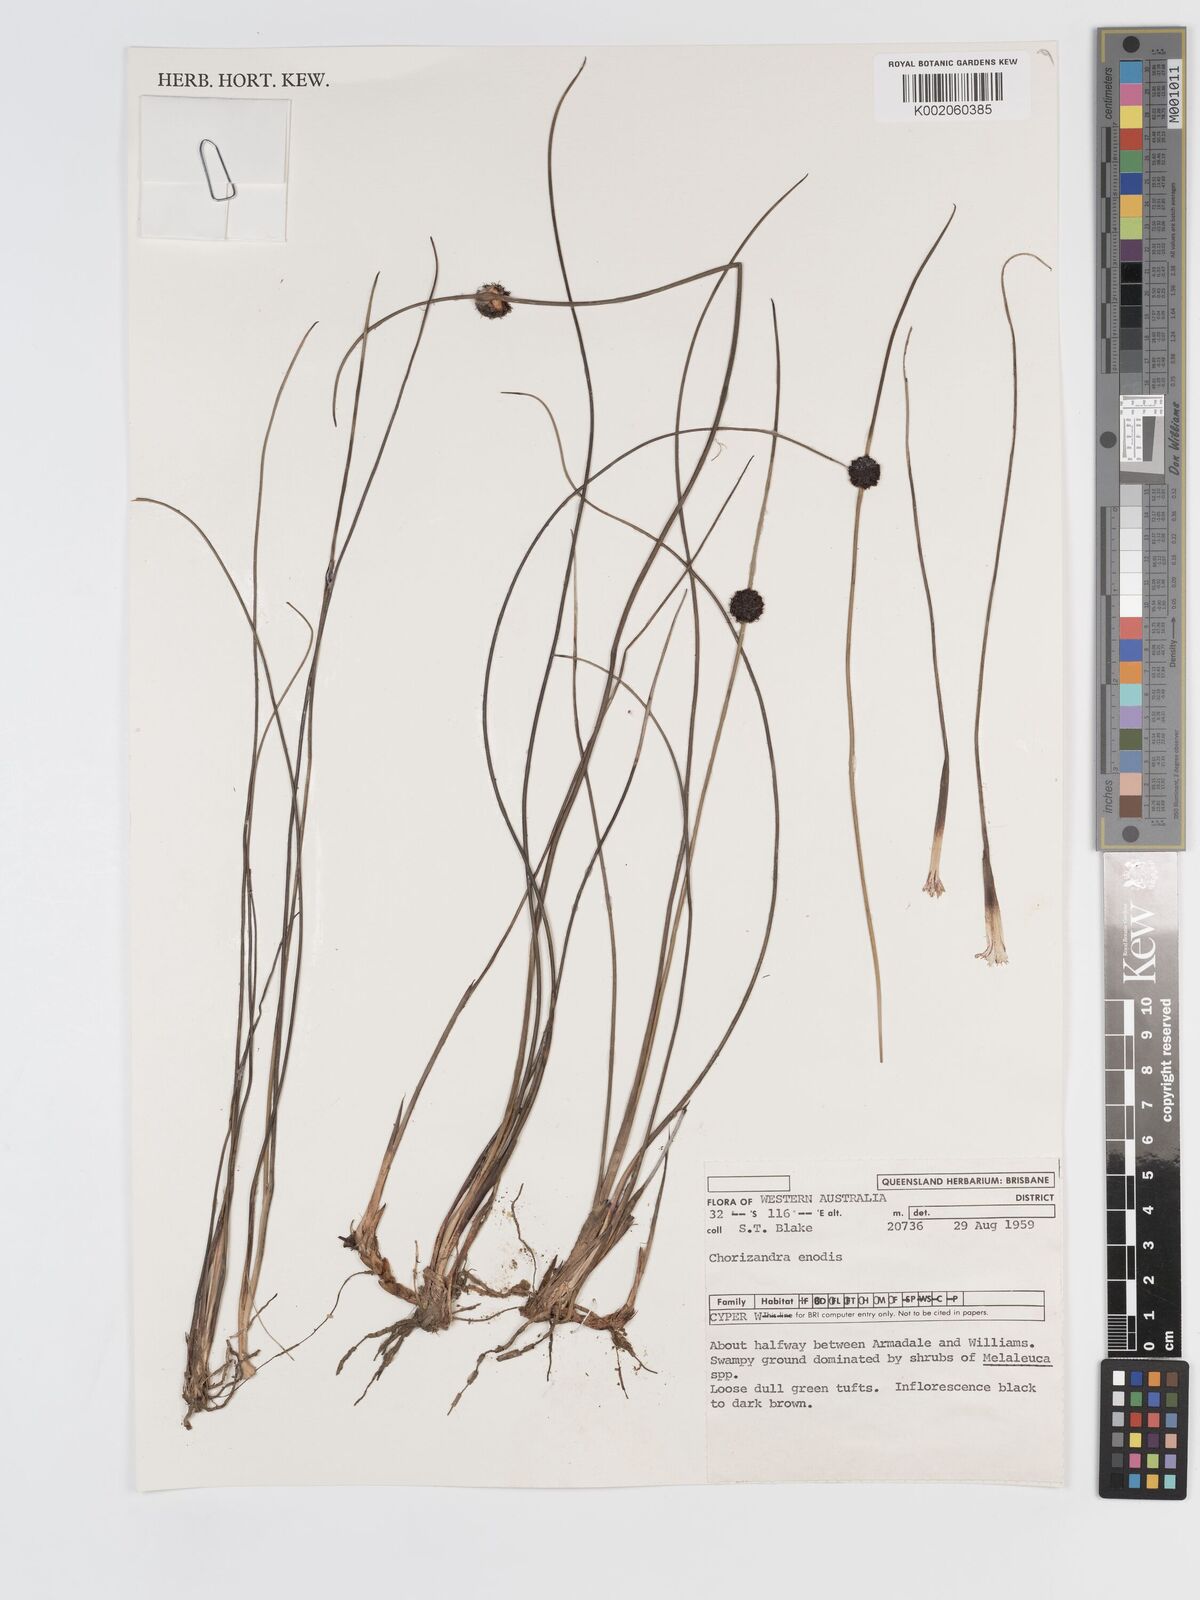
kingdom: Plantae
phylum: Tracheophyta
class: Liliopsida
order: Poales
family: Cyperaceae
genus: Chorizandra
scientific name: Chorizandra enodis
